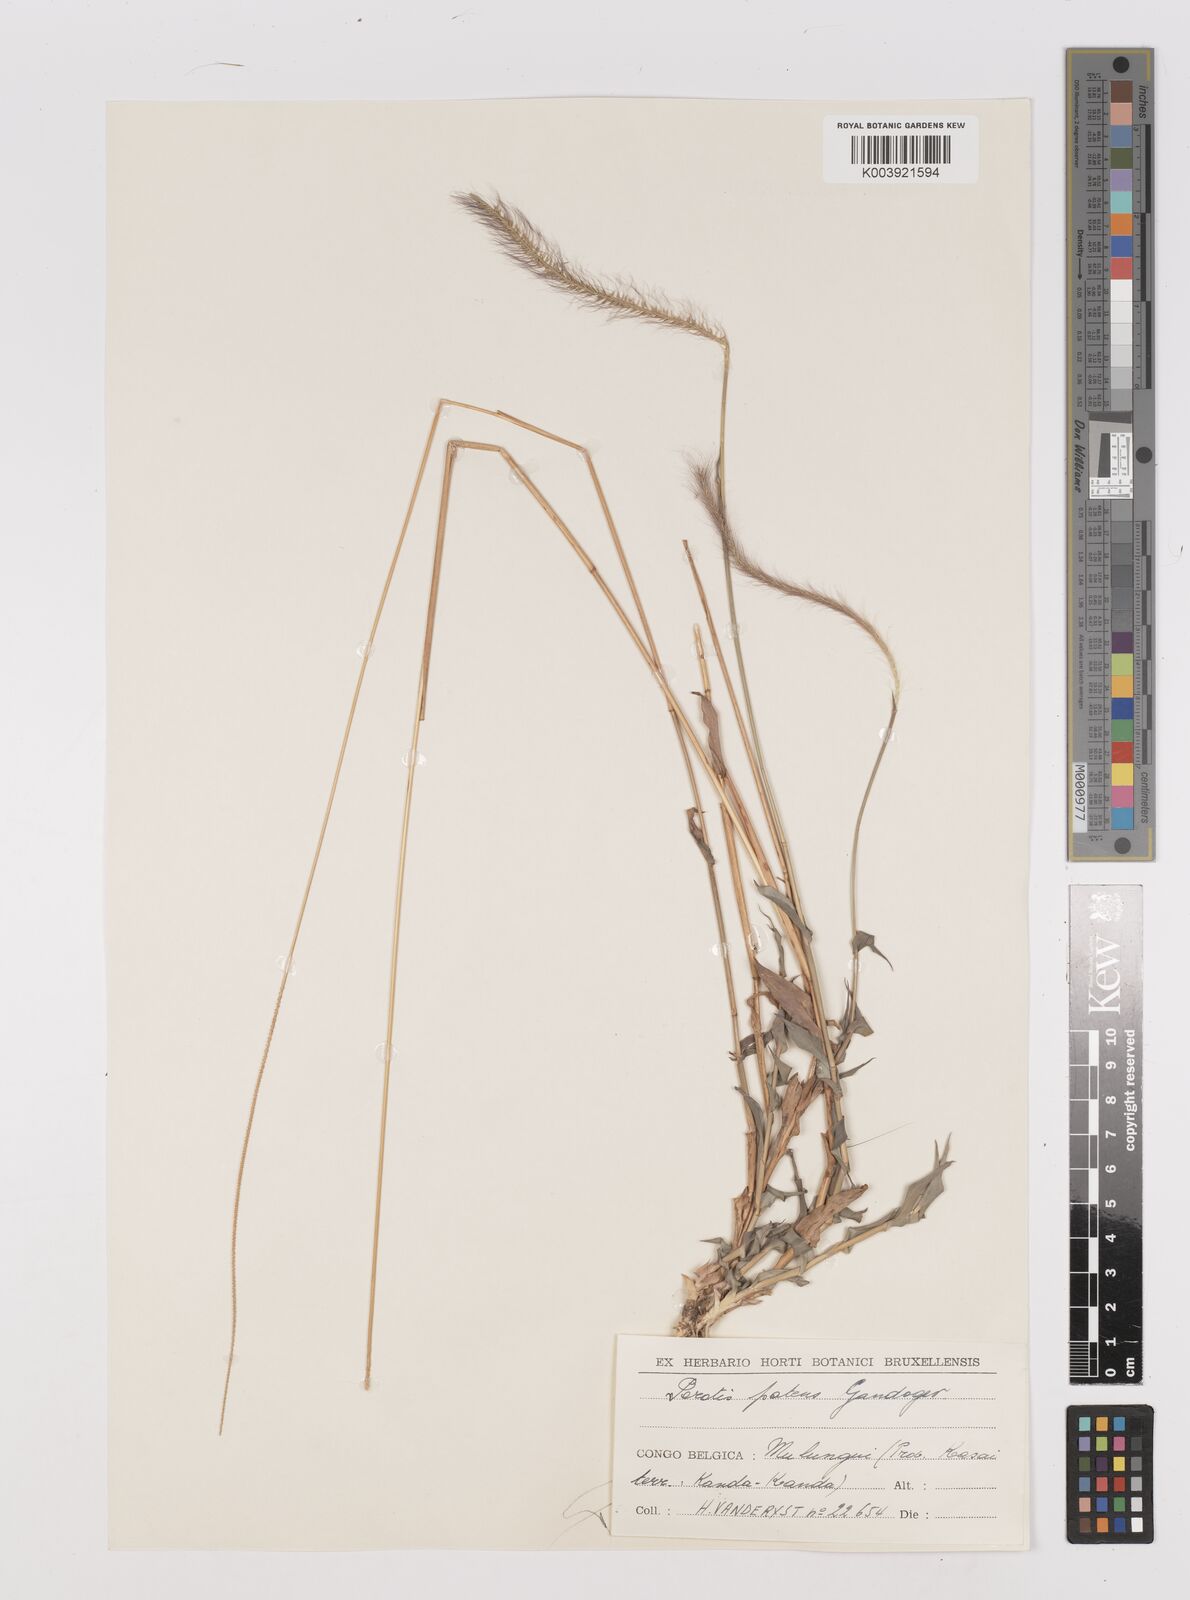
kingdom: Plantae
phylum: Tracheophyta
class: Liliopsida
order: Poales
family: Poaceae
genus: Perotis
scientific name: Perotis patens
